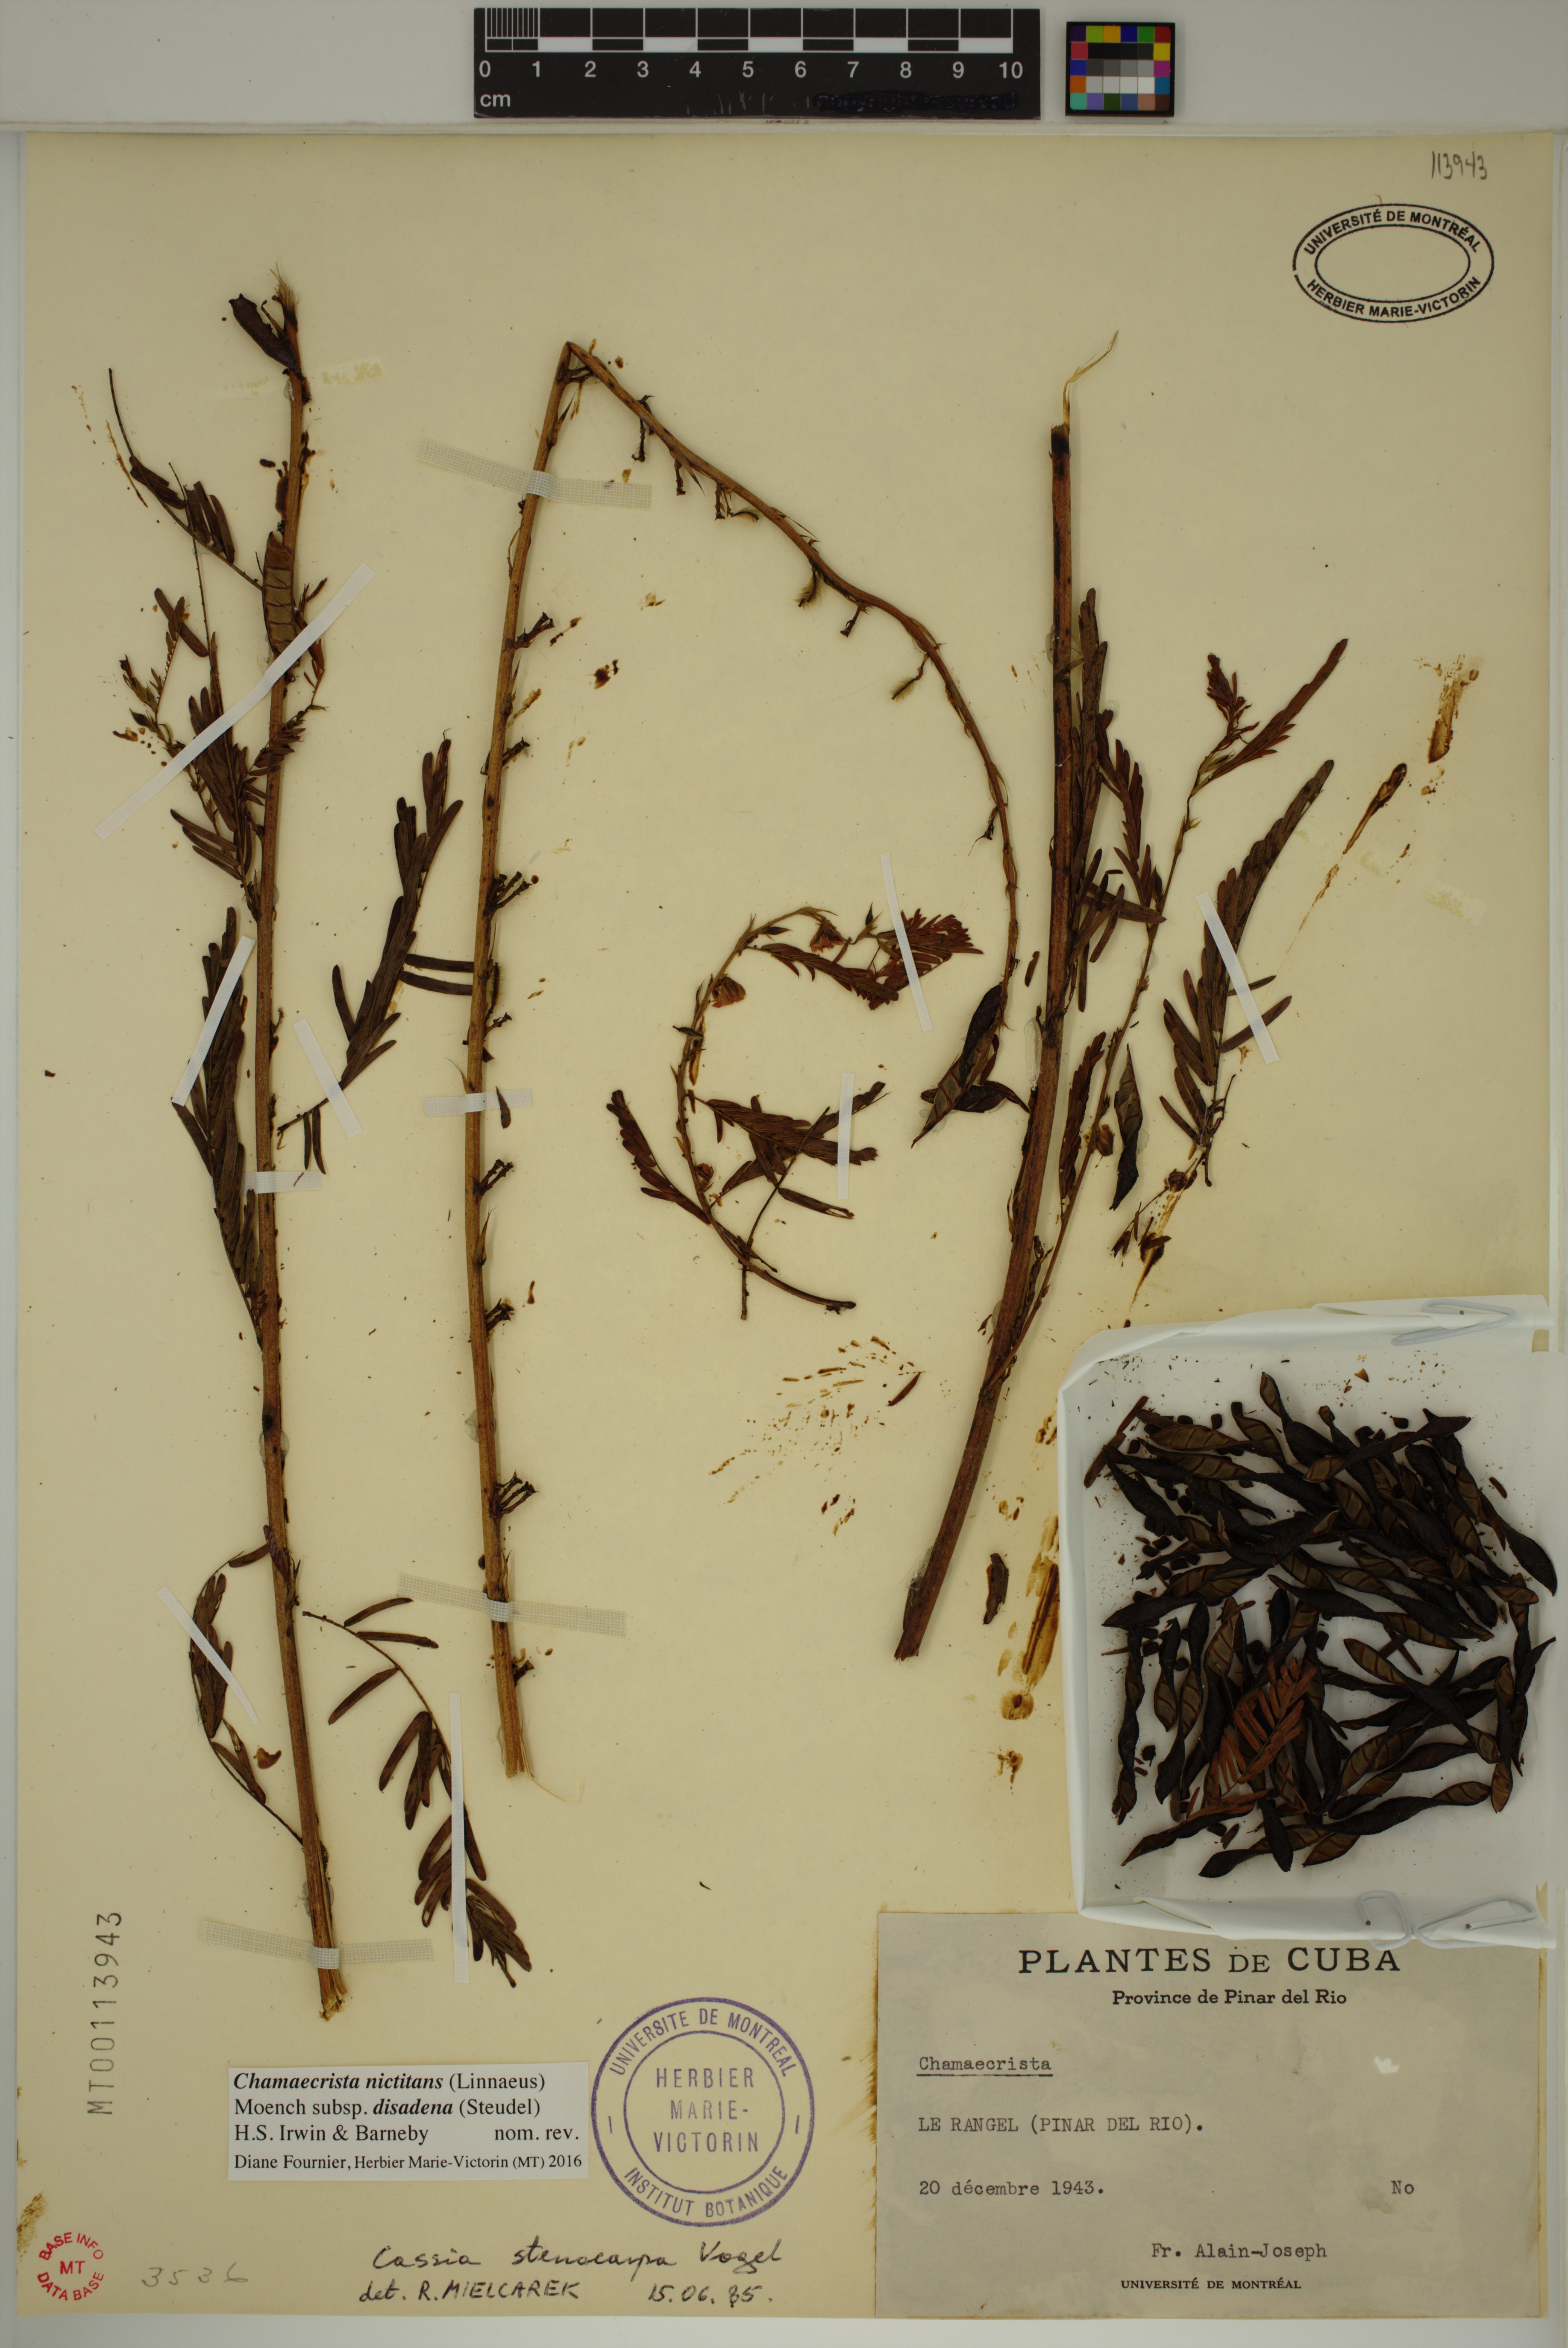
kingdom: Plantae
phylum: Tracheophyta
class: Magnoliopsida
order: Fabales
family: Fabaceae
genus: Chamaecrista
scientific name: Chamaecrista nictitans
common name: Sensitive cassia
